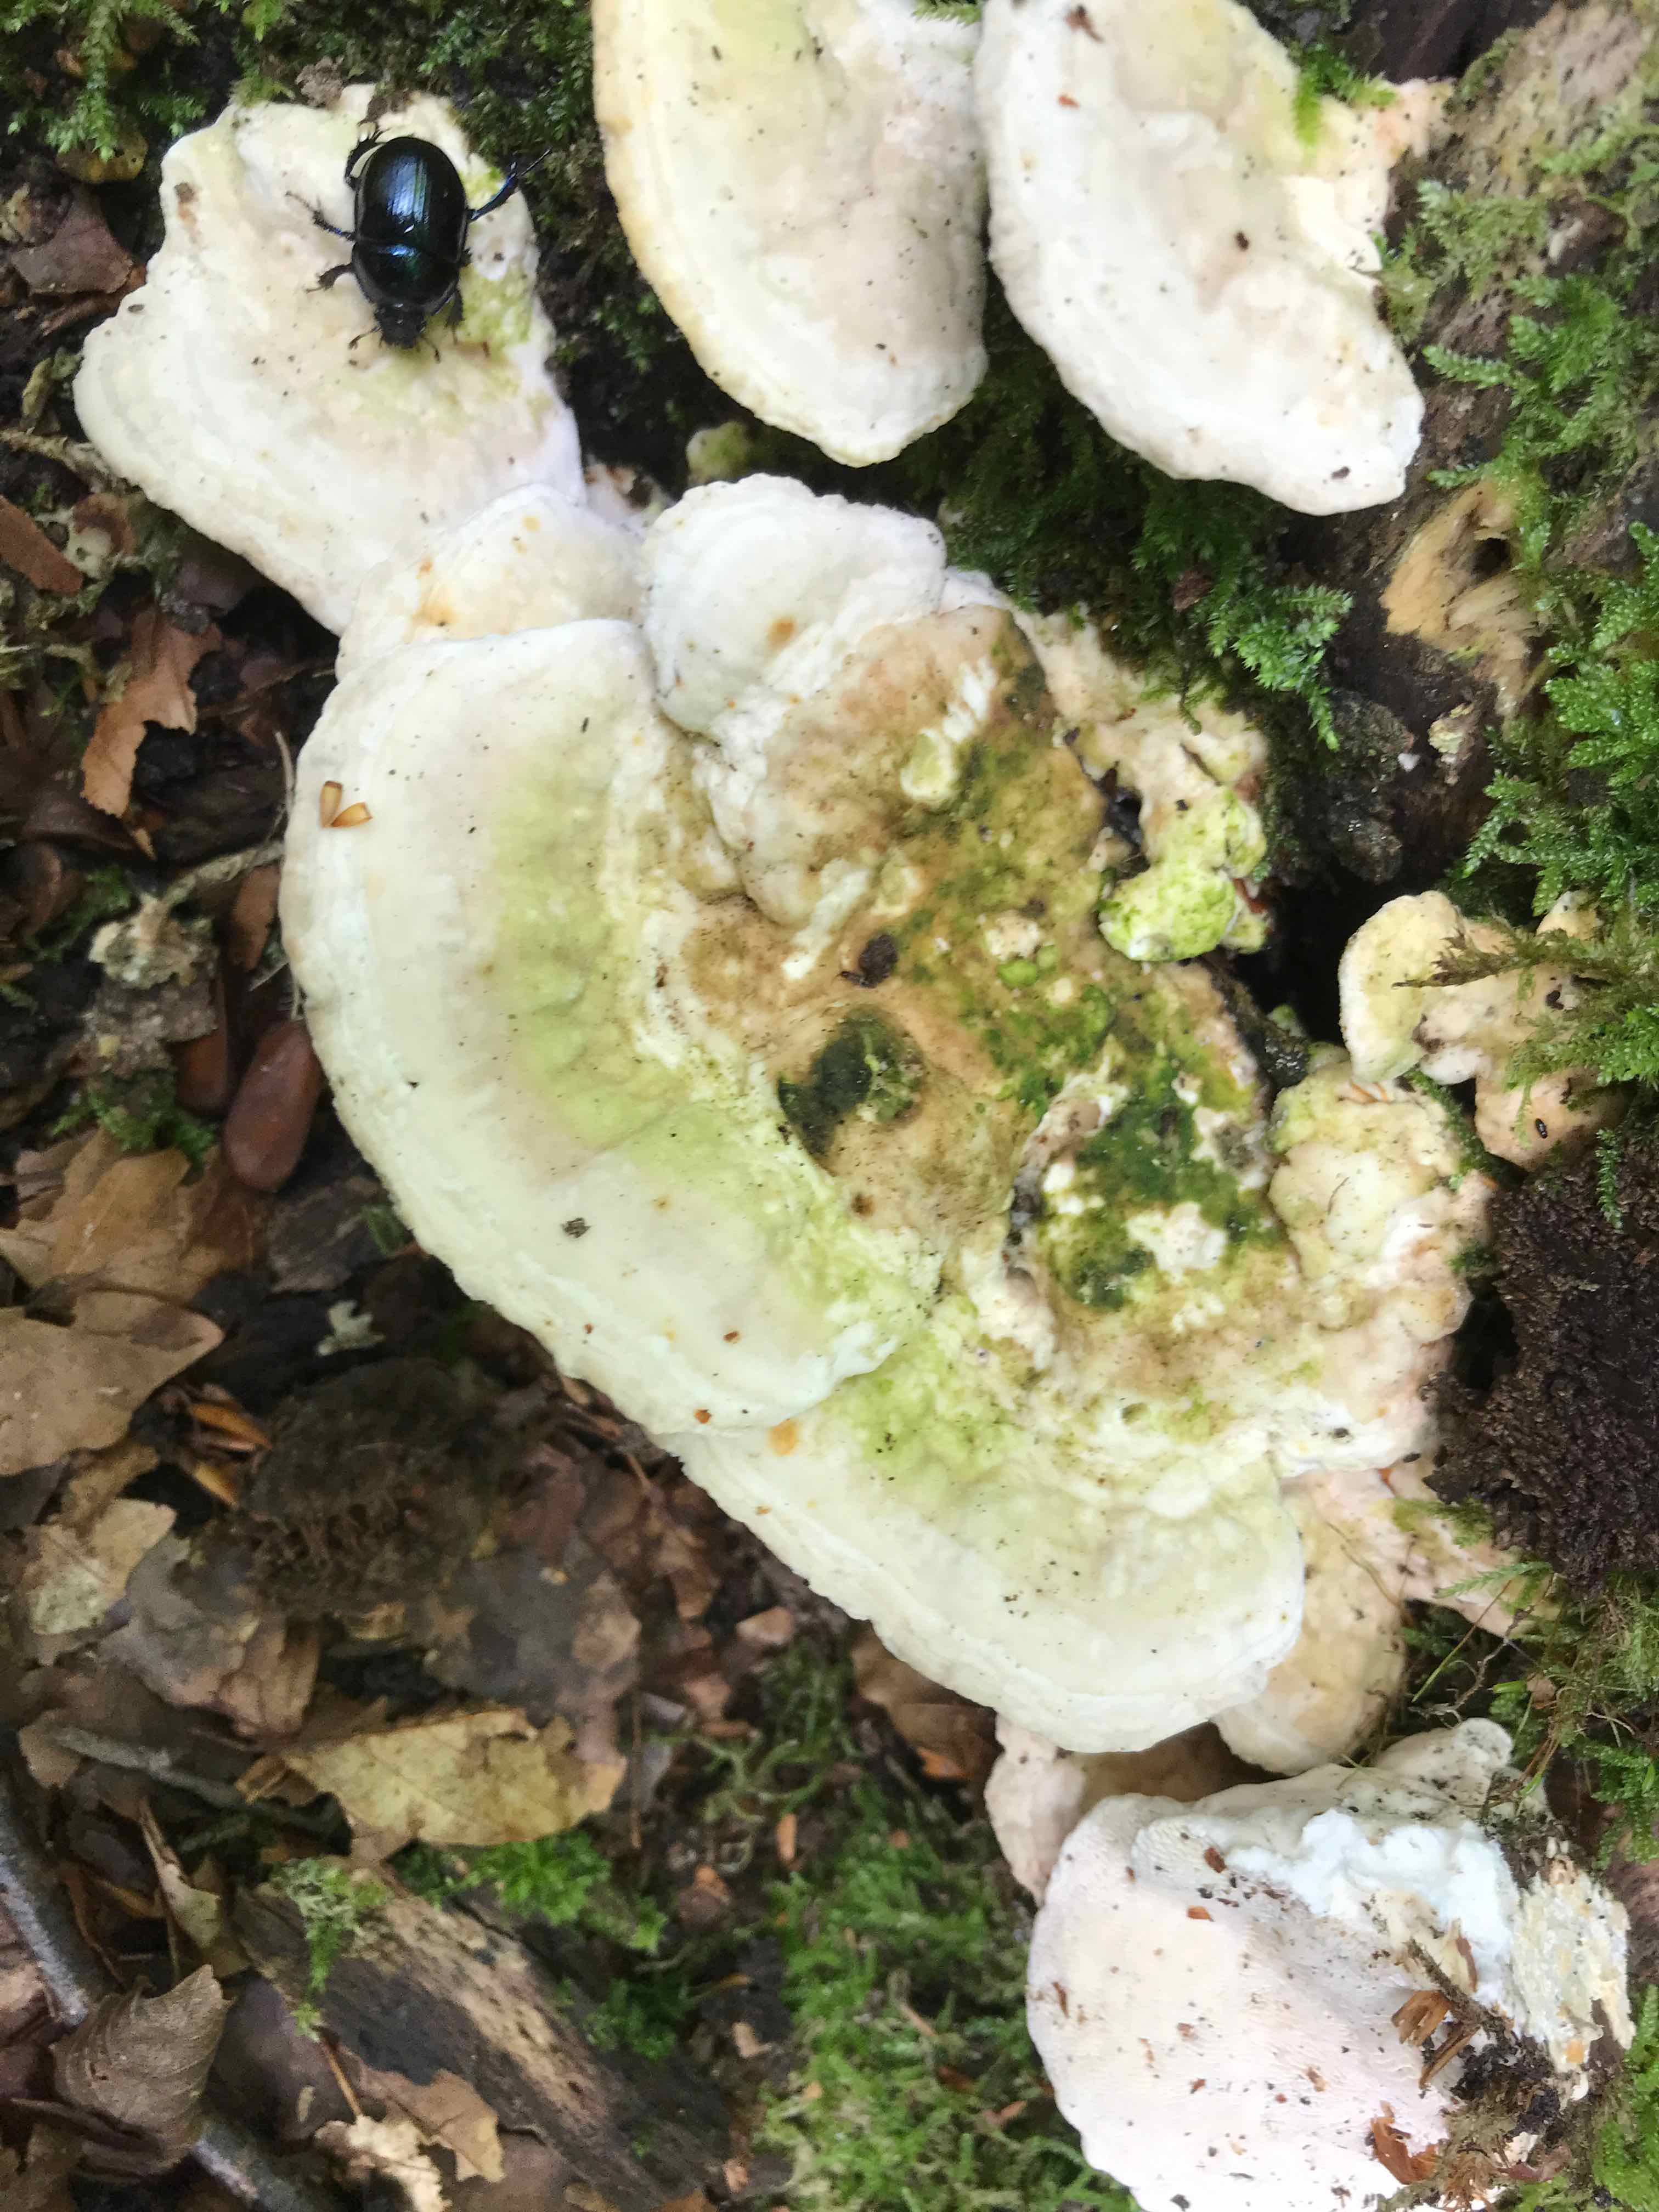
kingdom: Fungi
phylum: Basidiomycota
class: Agaricomycetes
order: Polyporales
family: Polyporaceae
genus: Trametes
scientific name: Trametes gibbosa
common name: puklet læderporesvamp
